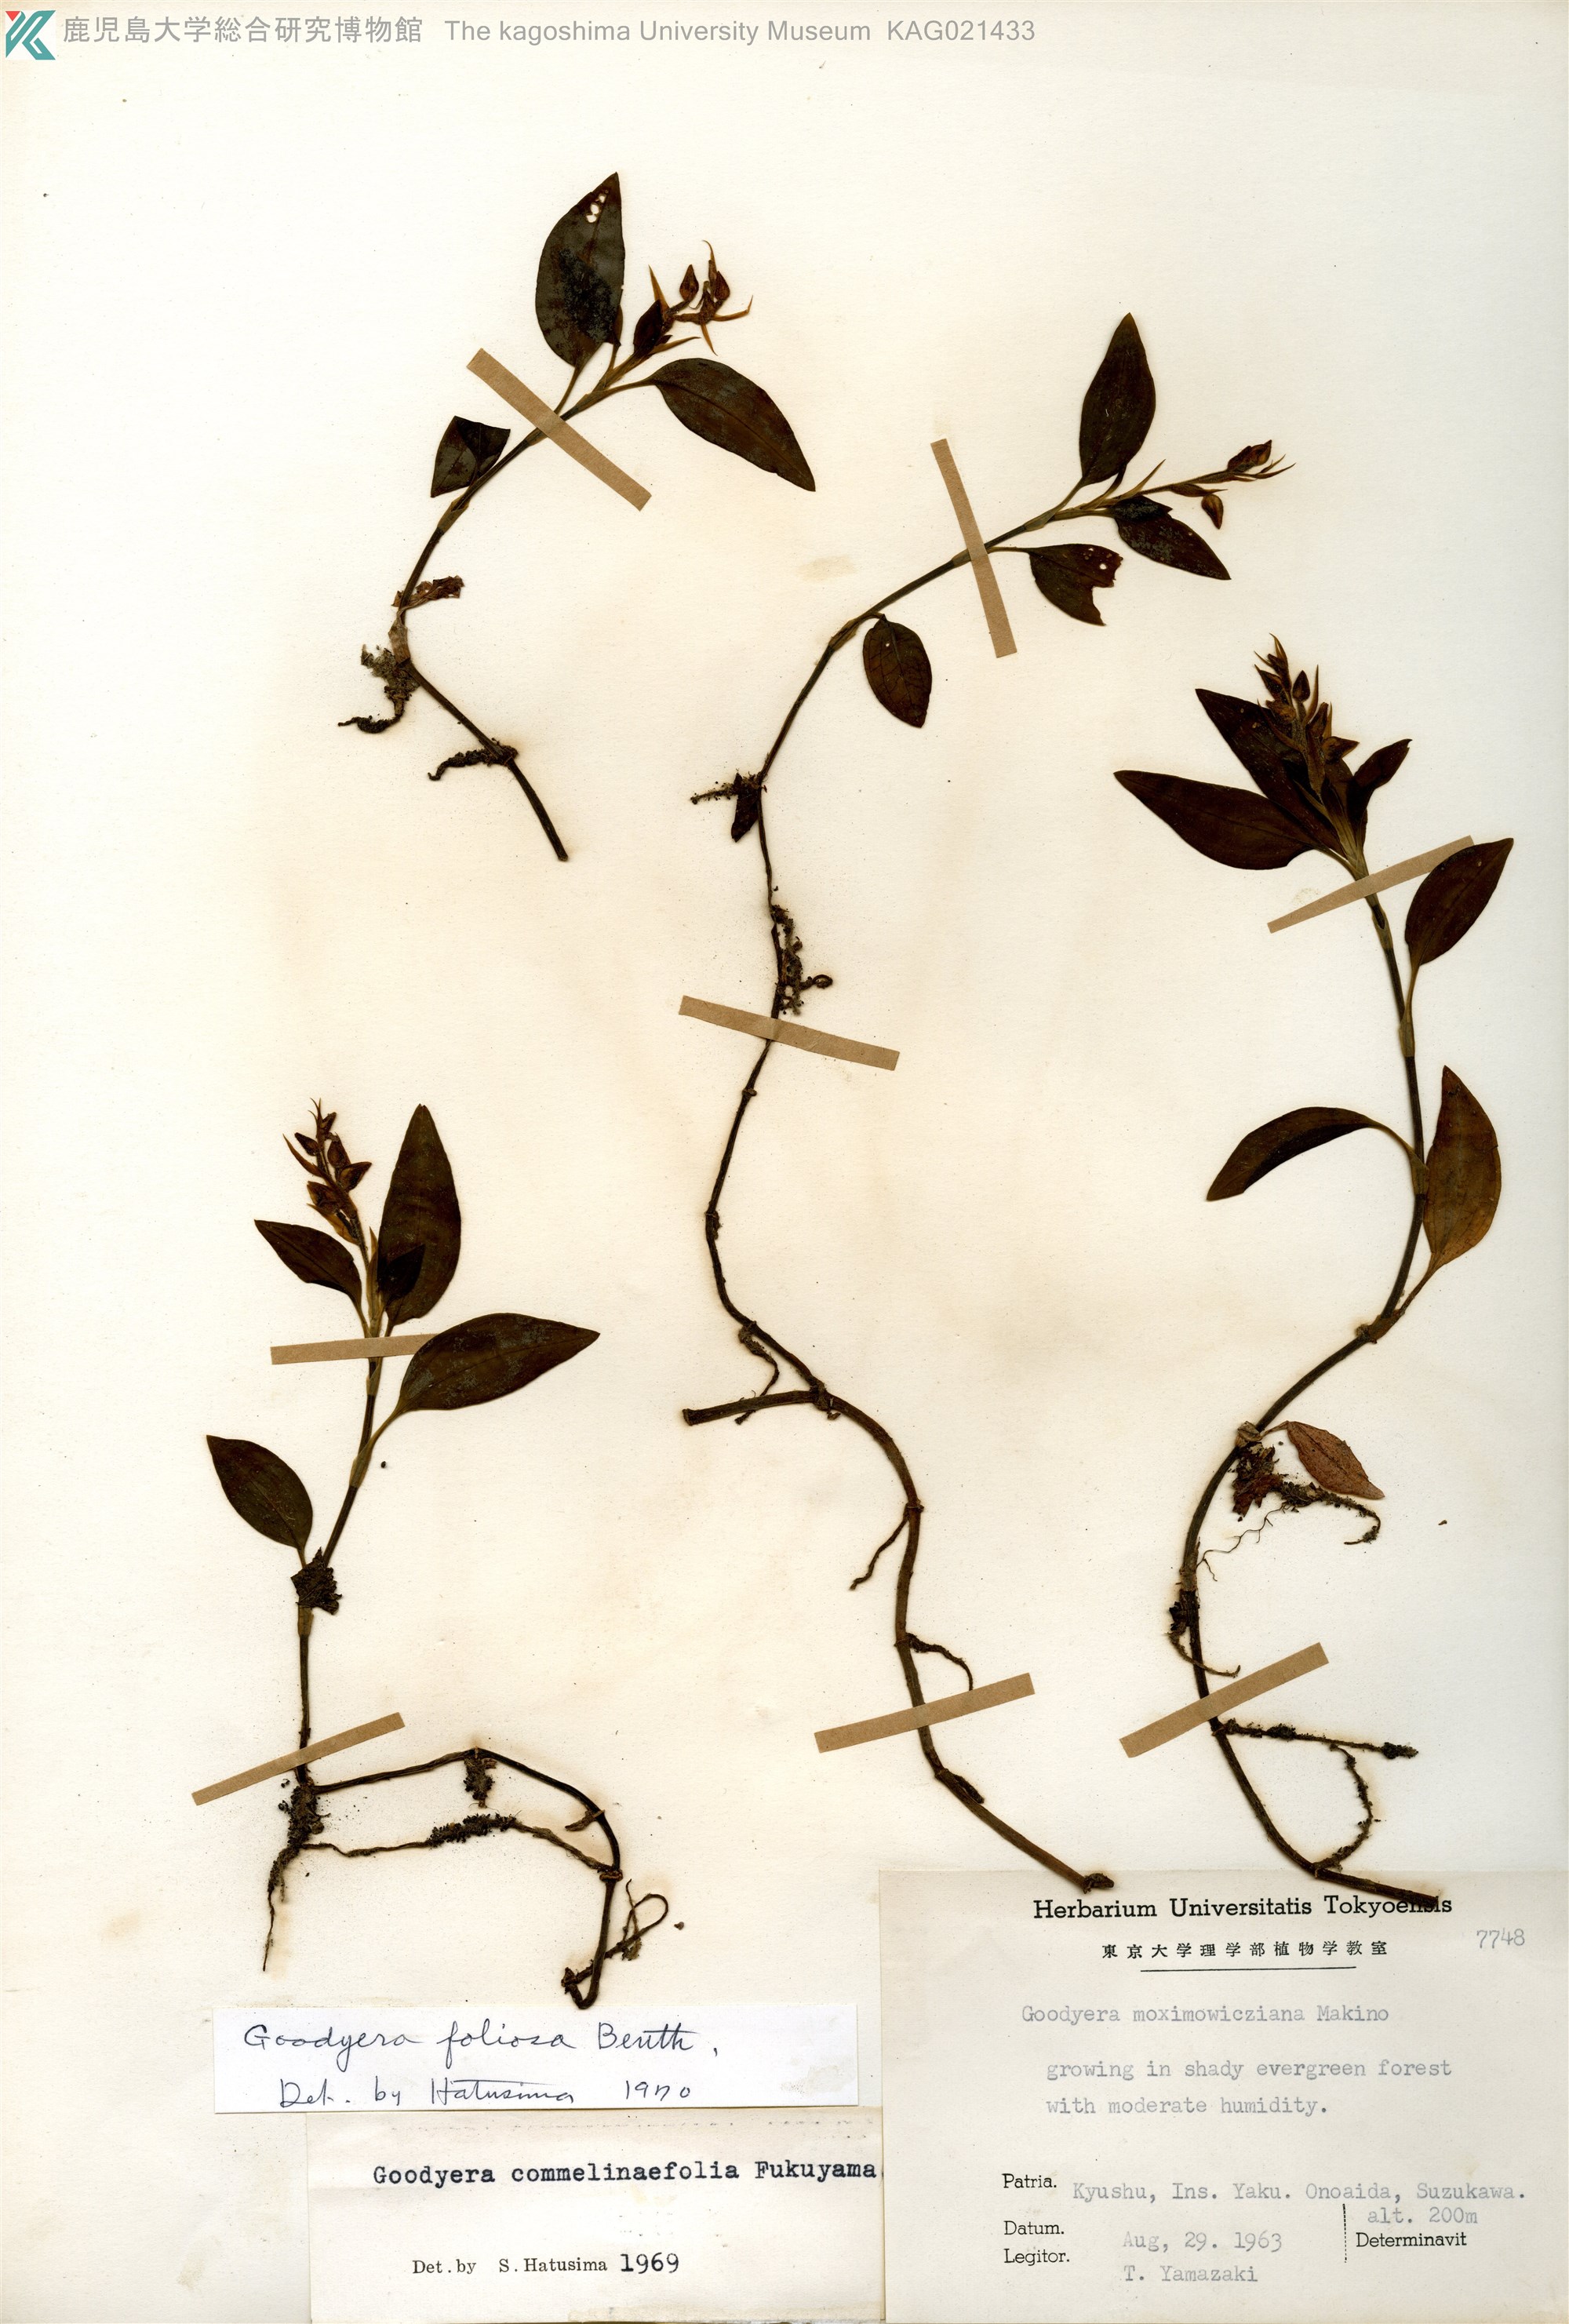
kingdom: Plantae
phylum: Tracheophyta
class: Liliopsida
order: Asparagales
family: Orchidaceae
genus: Goodyera
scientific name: Goodyera foliosa
